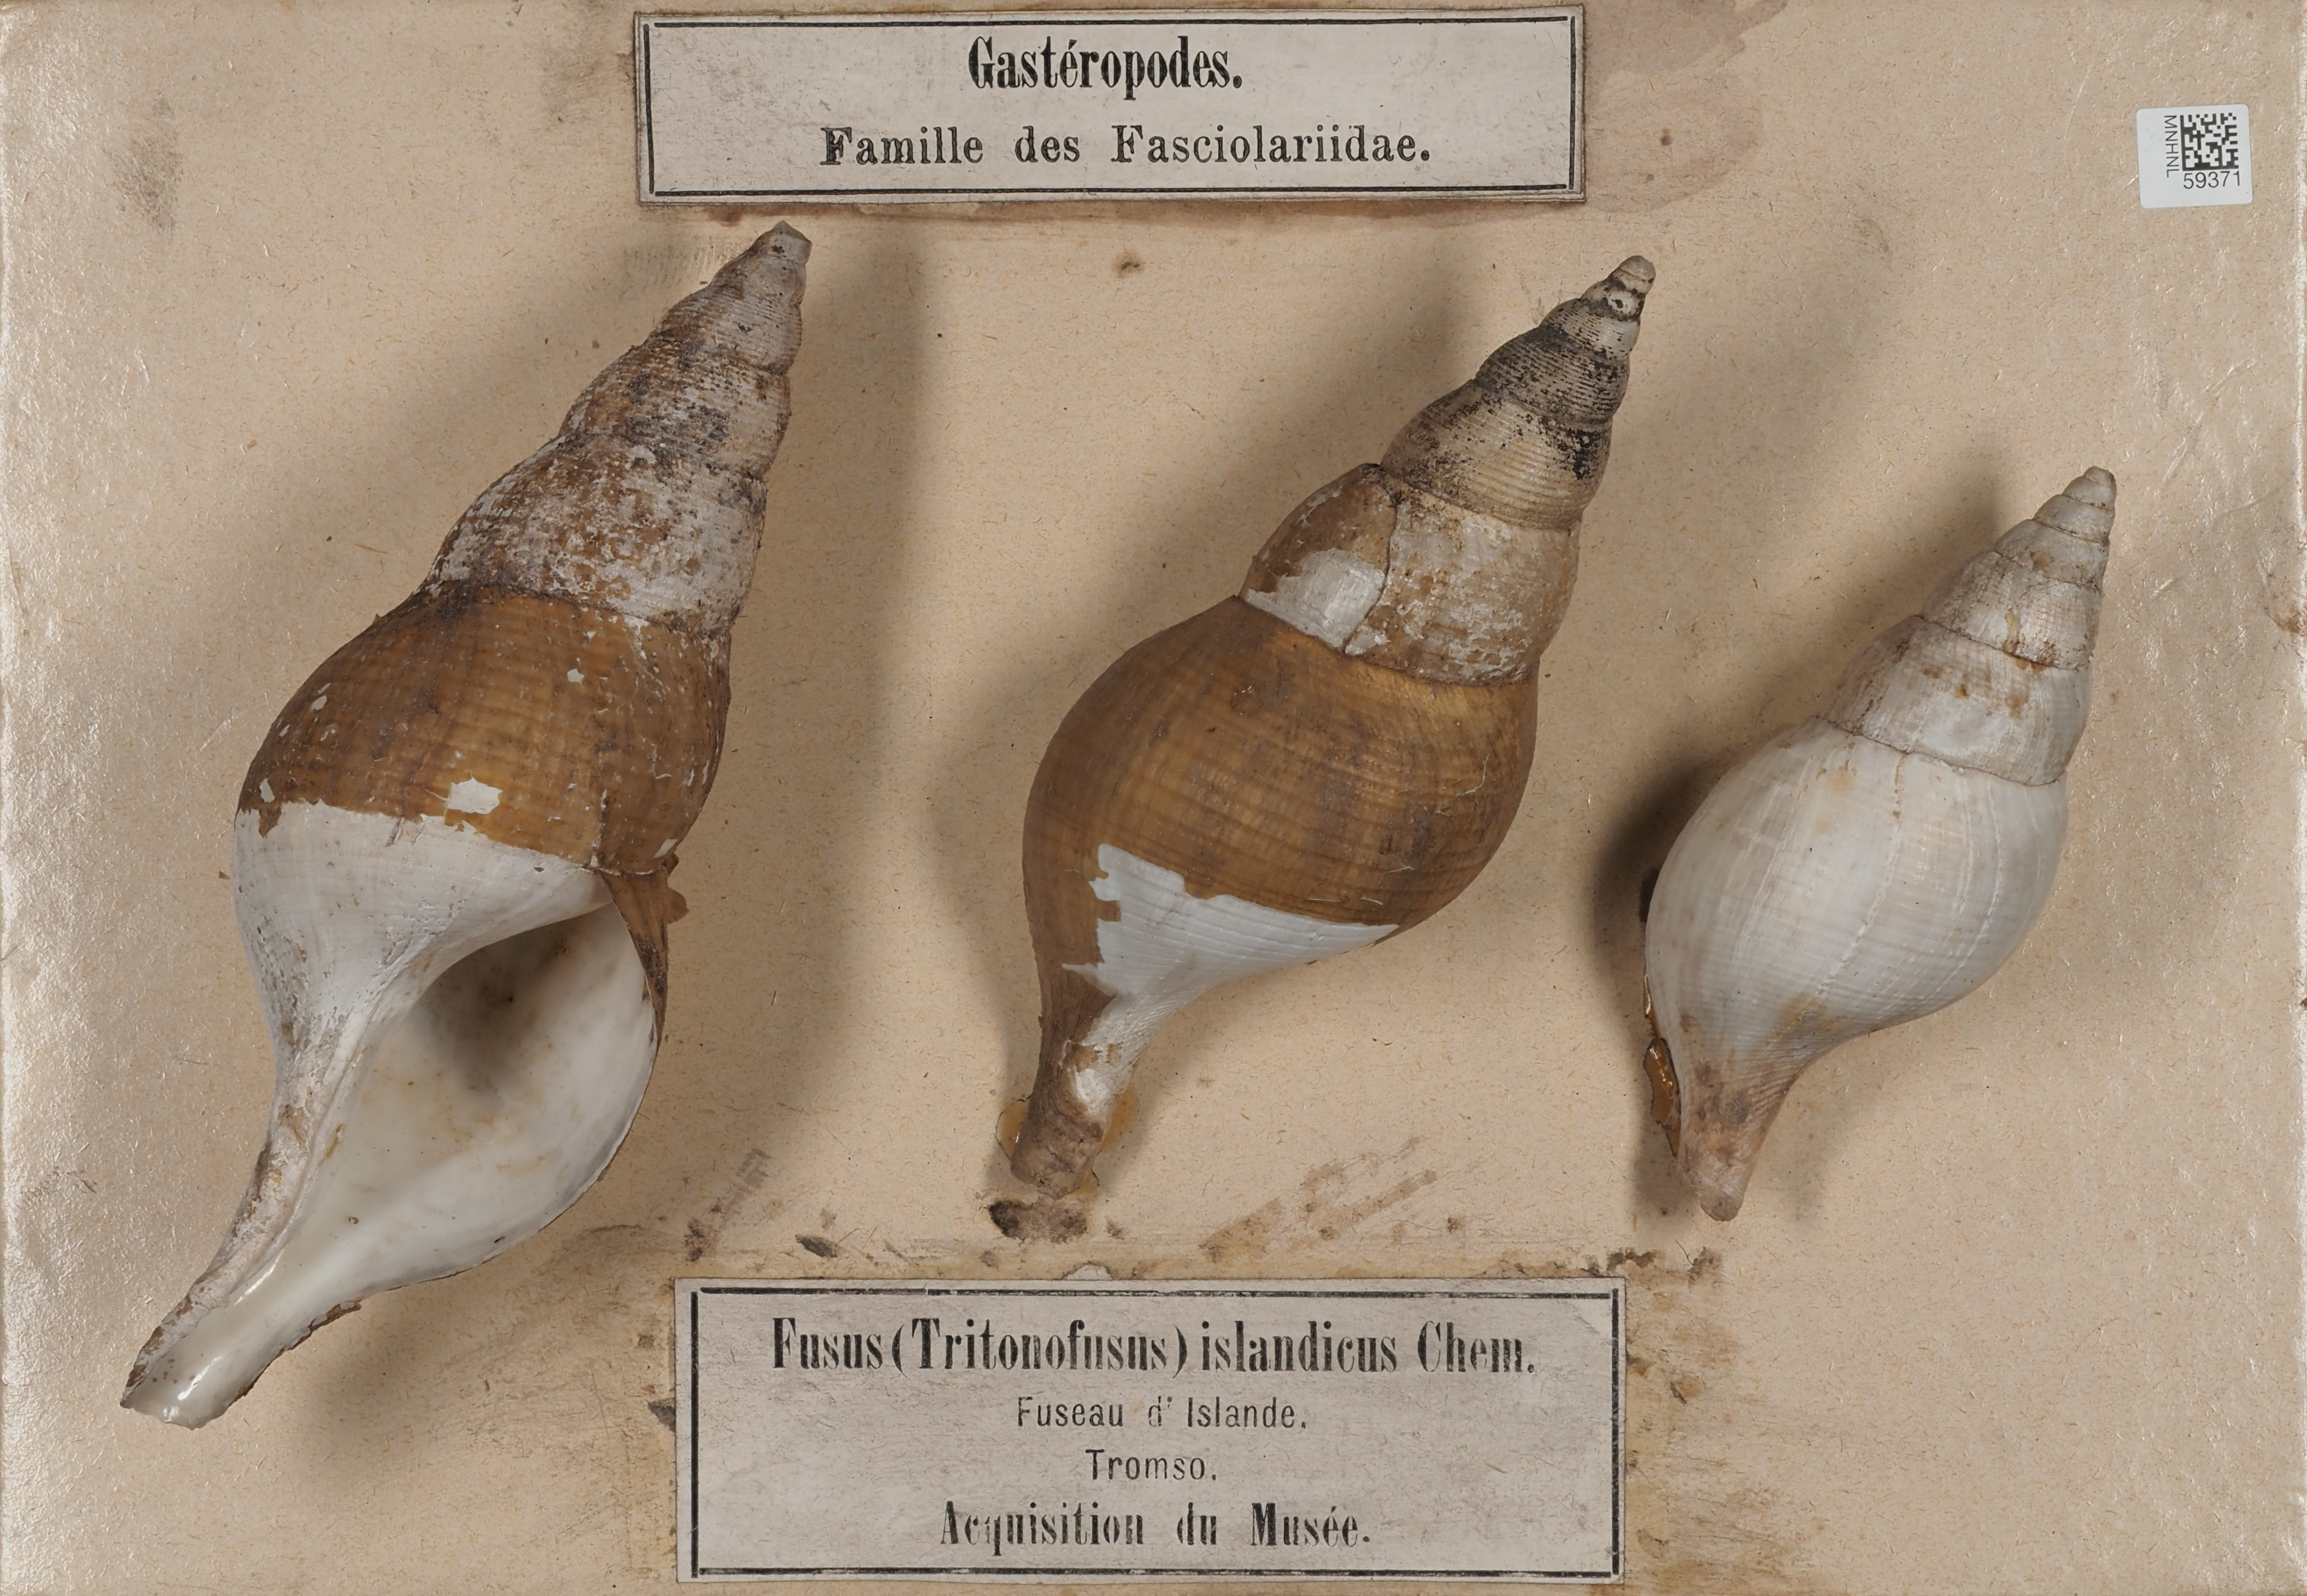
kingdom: Animalia
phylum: Mollusca
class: Gastropoda
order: Neogastropoda
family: Colidae
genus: Colus
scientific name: Colus islandicus
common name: Islandic colus
